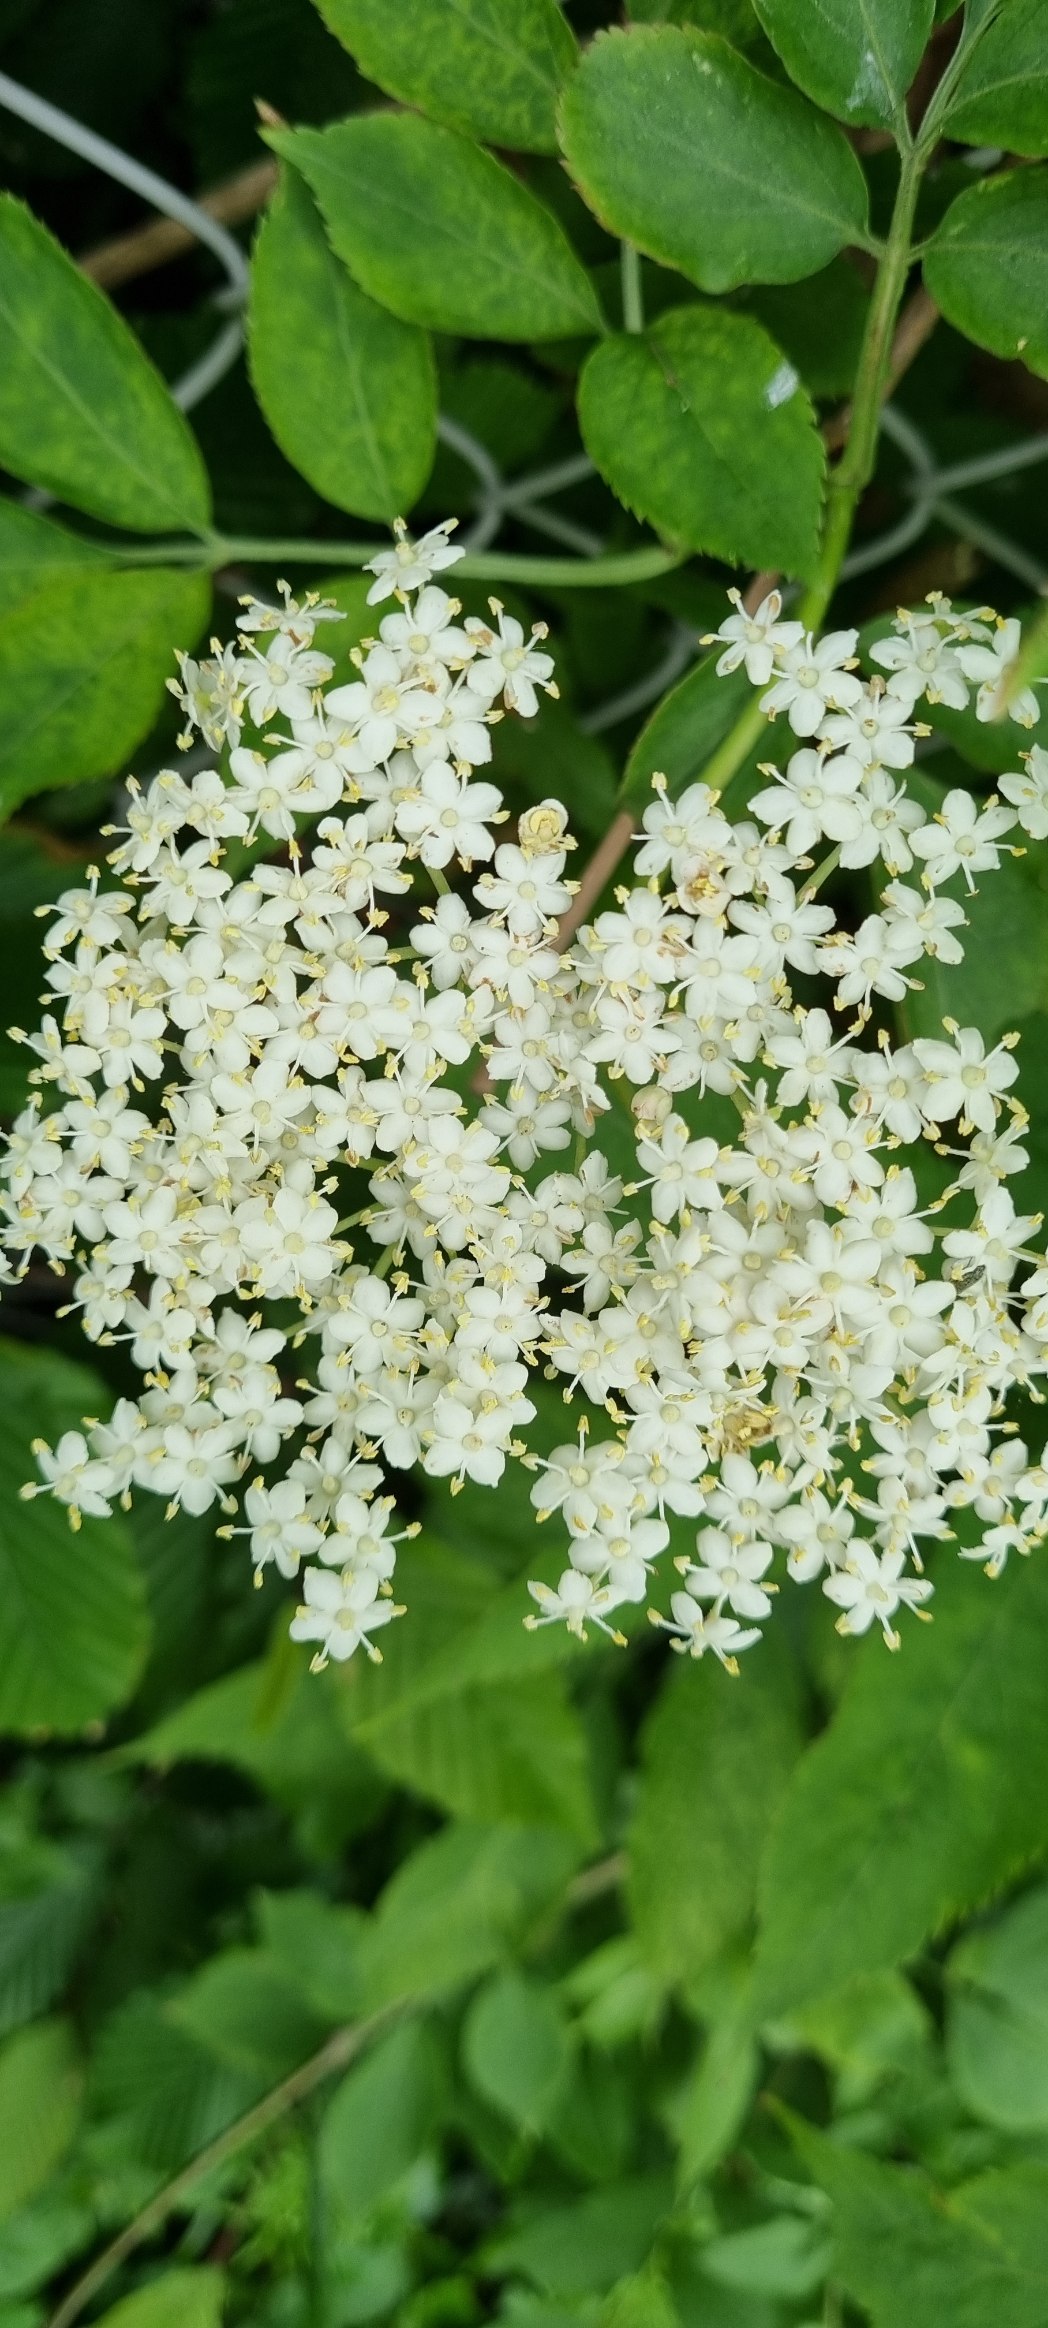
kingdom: Plantae
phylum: Tracheophyta
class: Magnoliopsida
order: Dipsacales
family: Viburnaceae
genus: Sambucus
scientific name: Sambucus nigra
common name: Almindelig hyld
